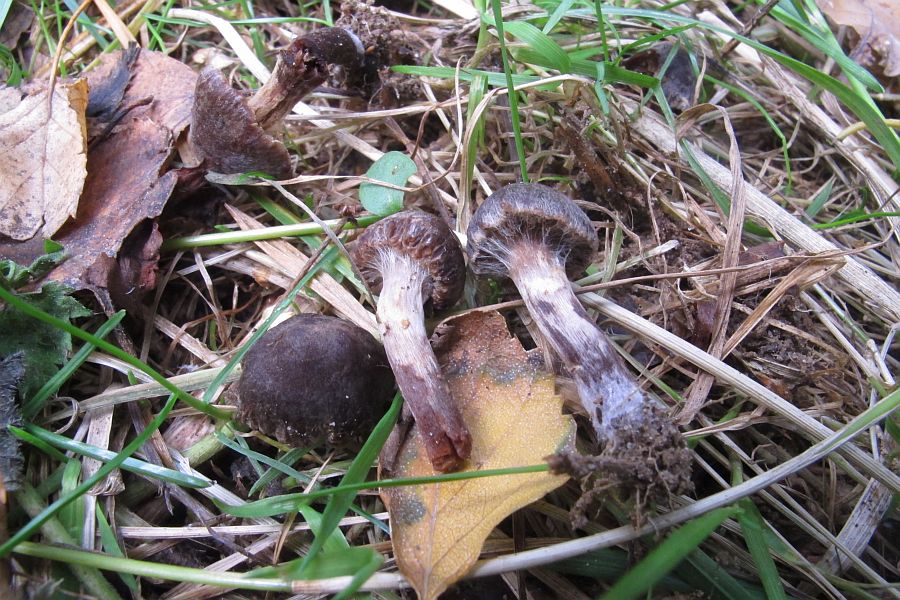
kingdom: Fungi
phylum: Basidiomycota
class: Agaricomycetes
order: Agaricales
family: Cortinariaceae
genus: Cortinarius
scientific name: Cortinarius umbrinolens
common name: mørk slørhat
